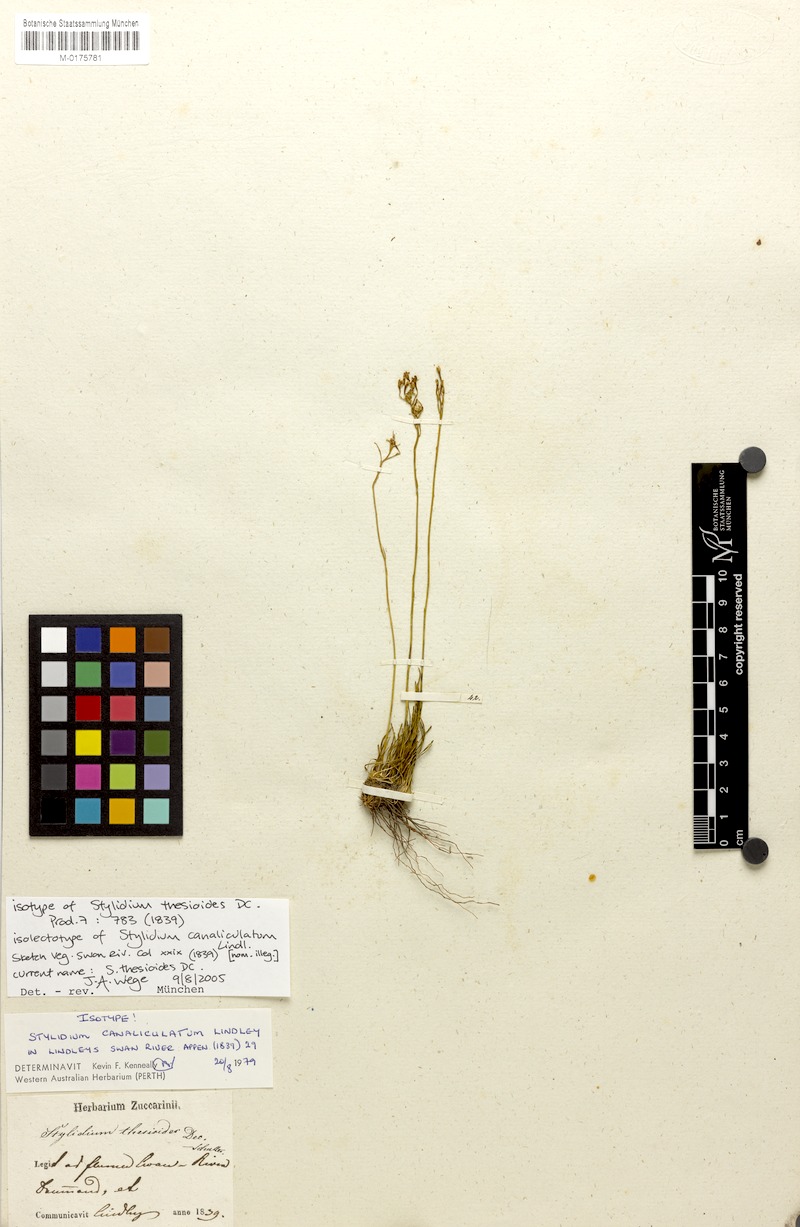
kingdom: Plantae
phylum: Tracheophyta
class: Magnoliopsida
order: Asterales
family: Stylidiaceae
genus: Stylidium
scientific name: Stylidium thesioides
